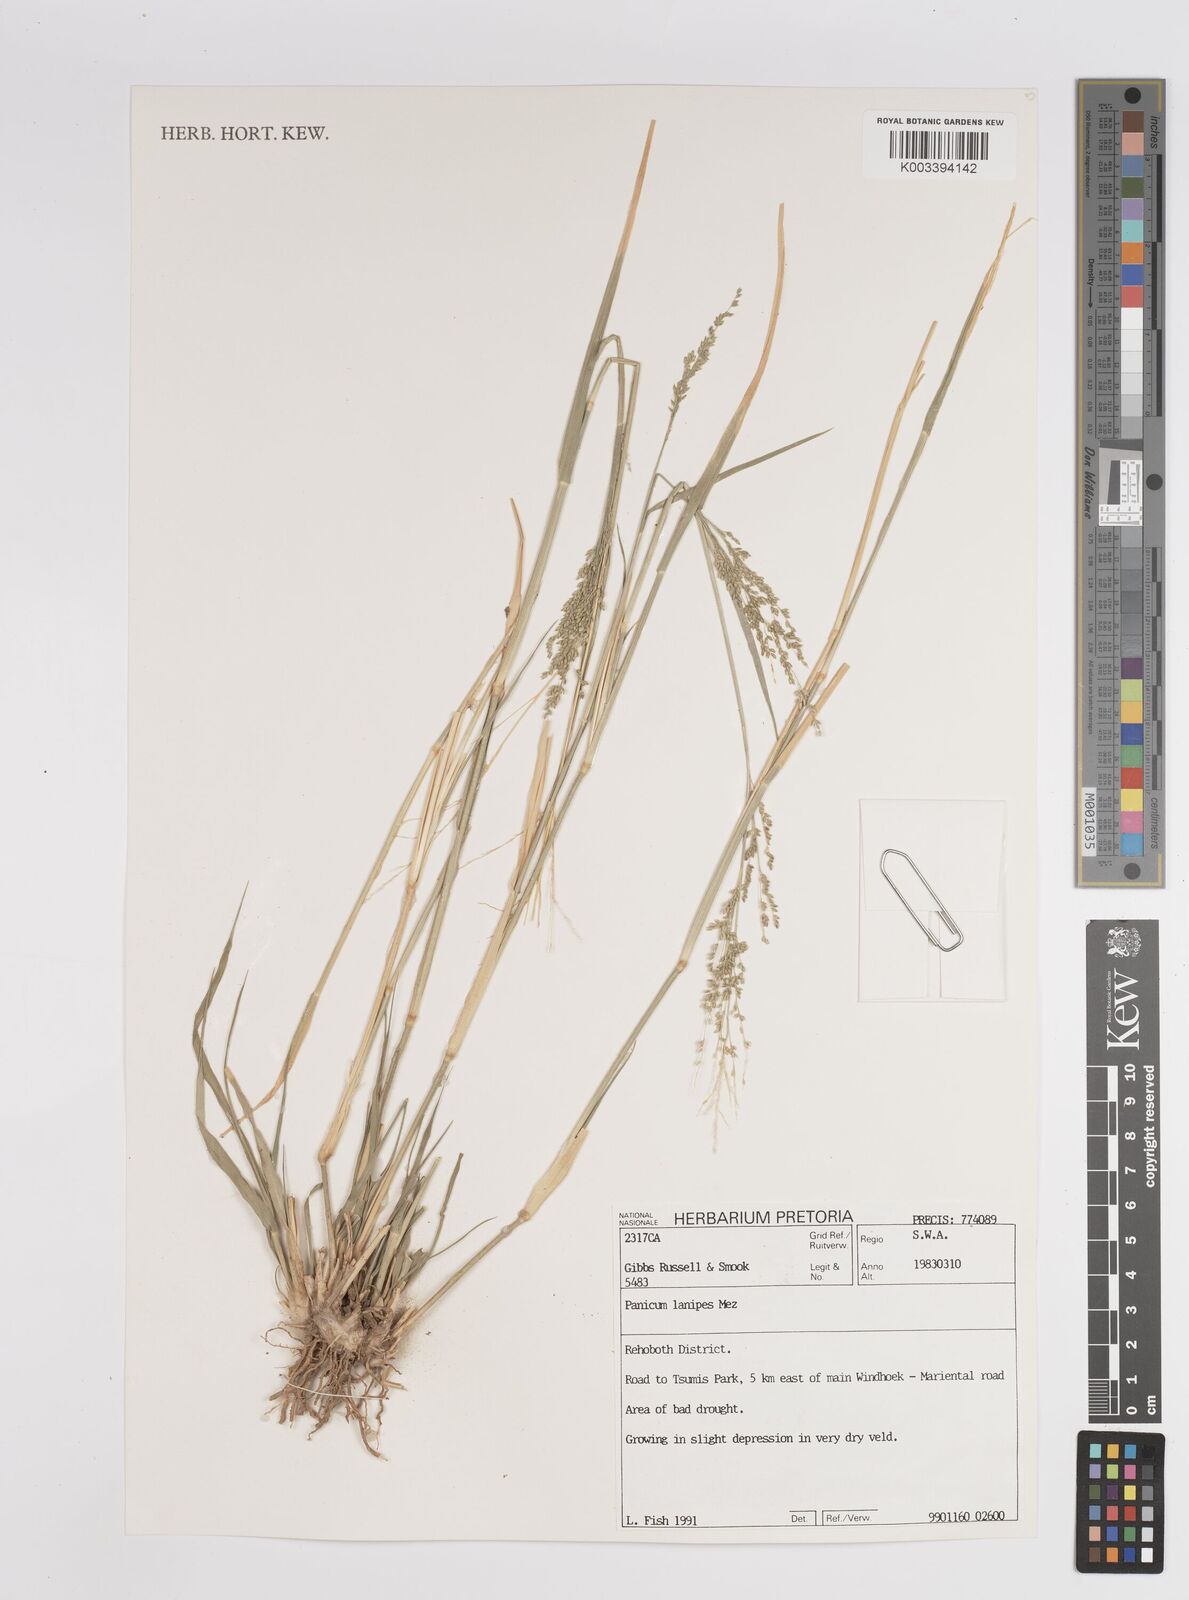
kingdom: Plantae
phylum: Tracheophyta
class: Liliopsida
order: Poales
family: Poaceae
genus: Panicum
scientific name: Panicum lanipes
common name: Wolvoet panicum
